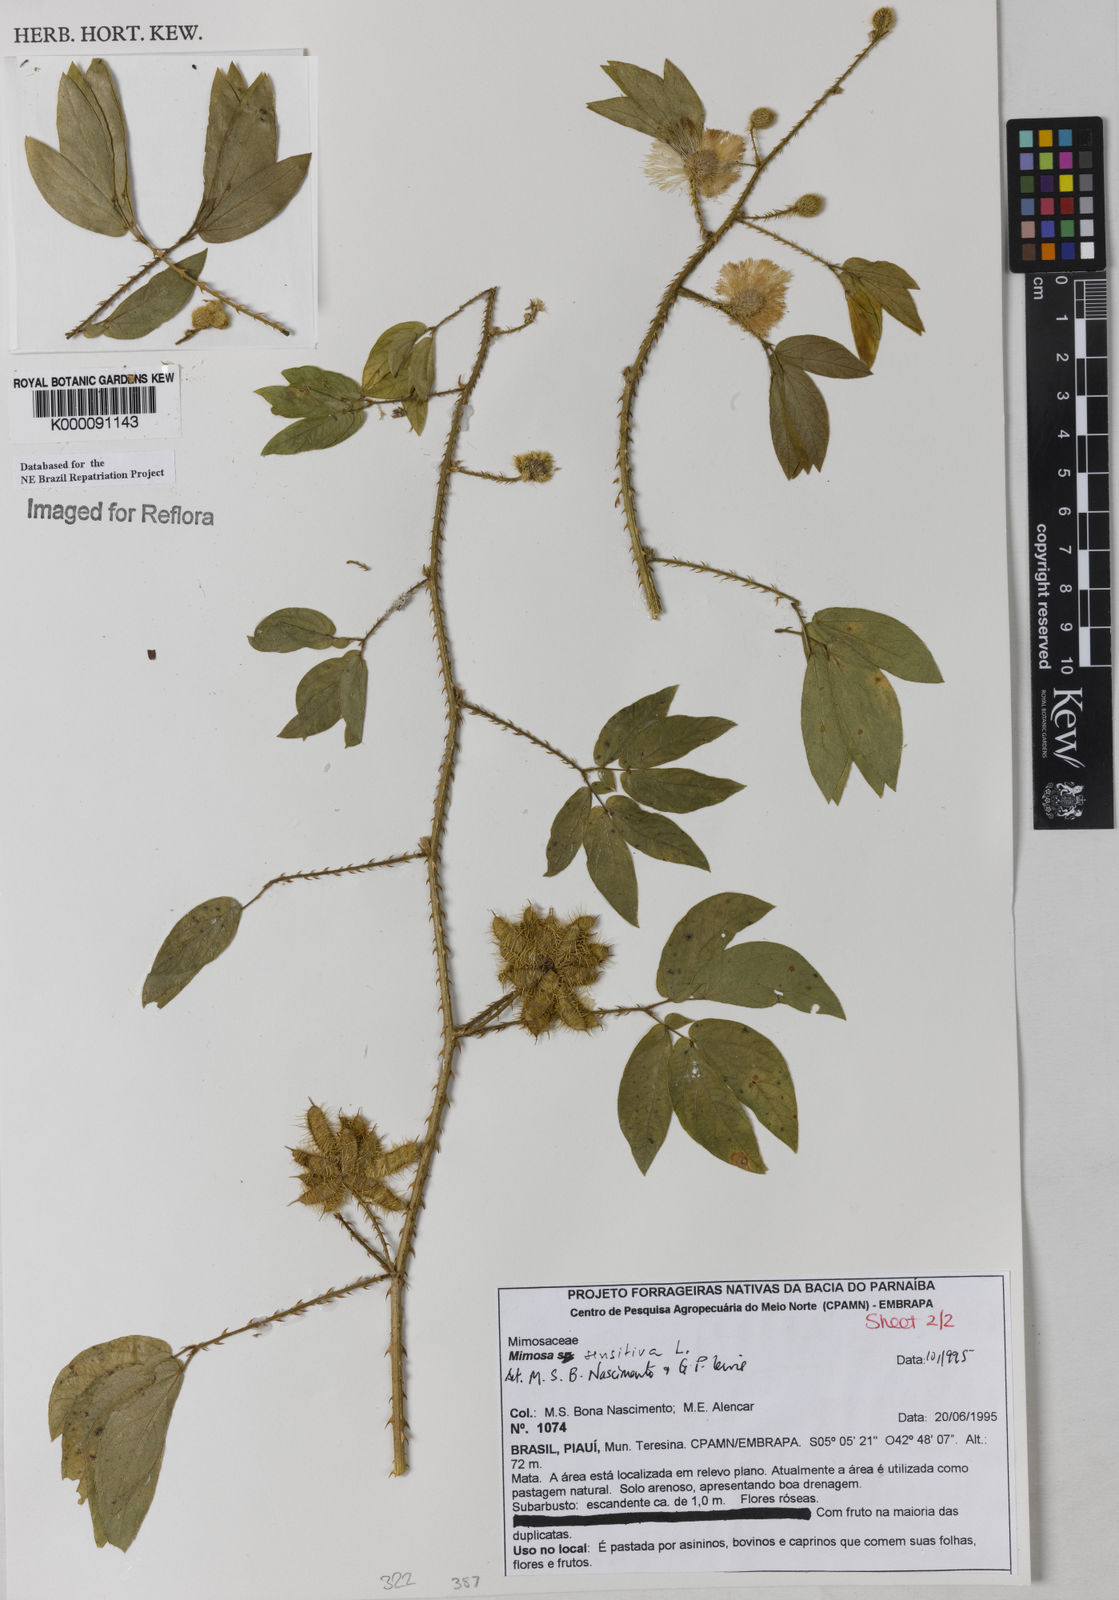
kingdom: Plantae
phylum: Tracheophyta
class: Magnoliopsida
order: Fabales
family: Fabaceae
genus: Mimosa
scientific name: Mimosa sensitiva
